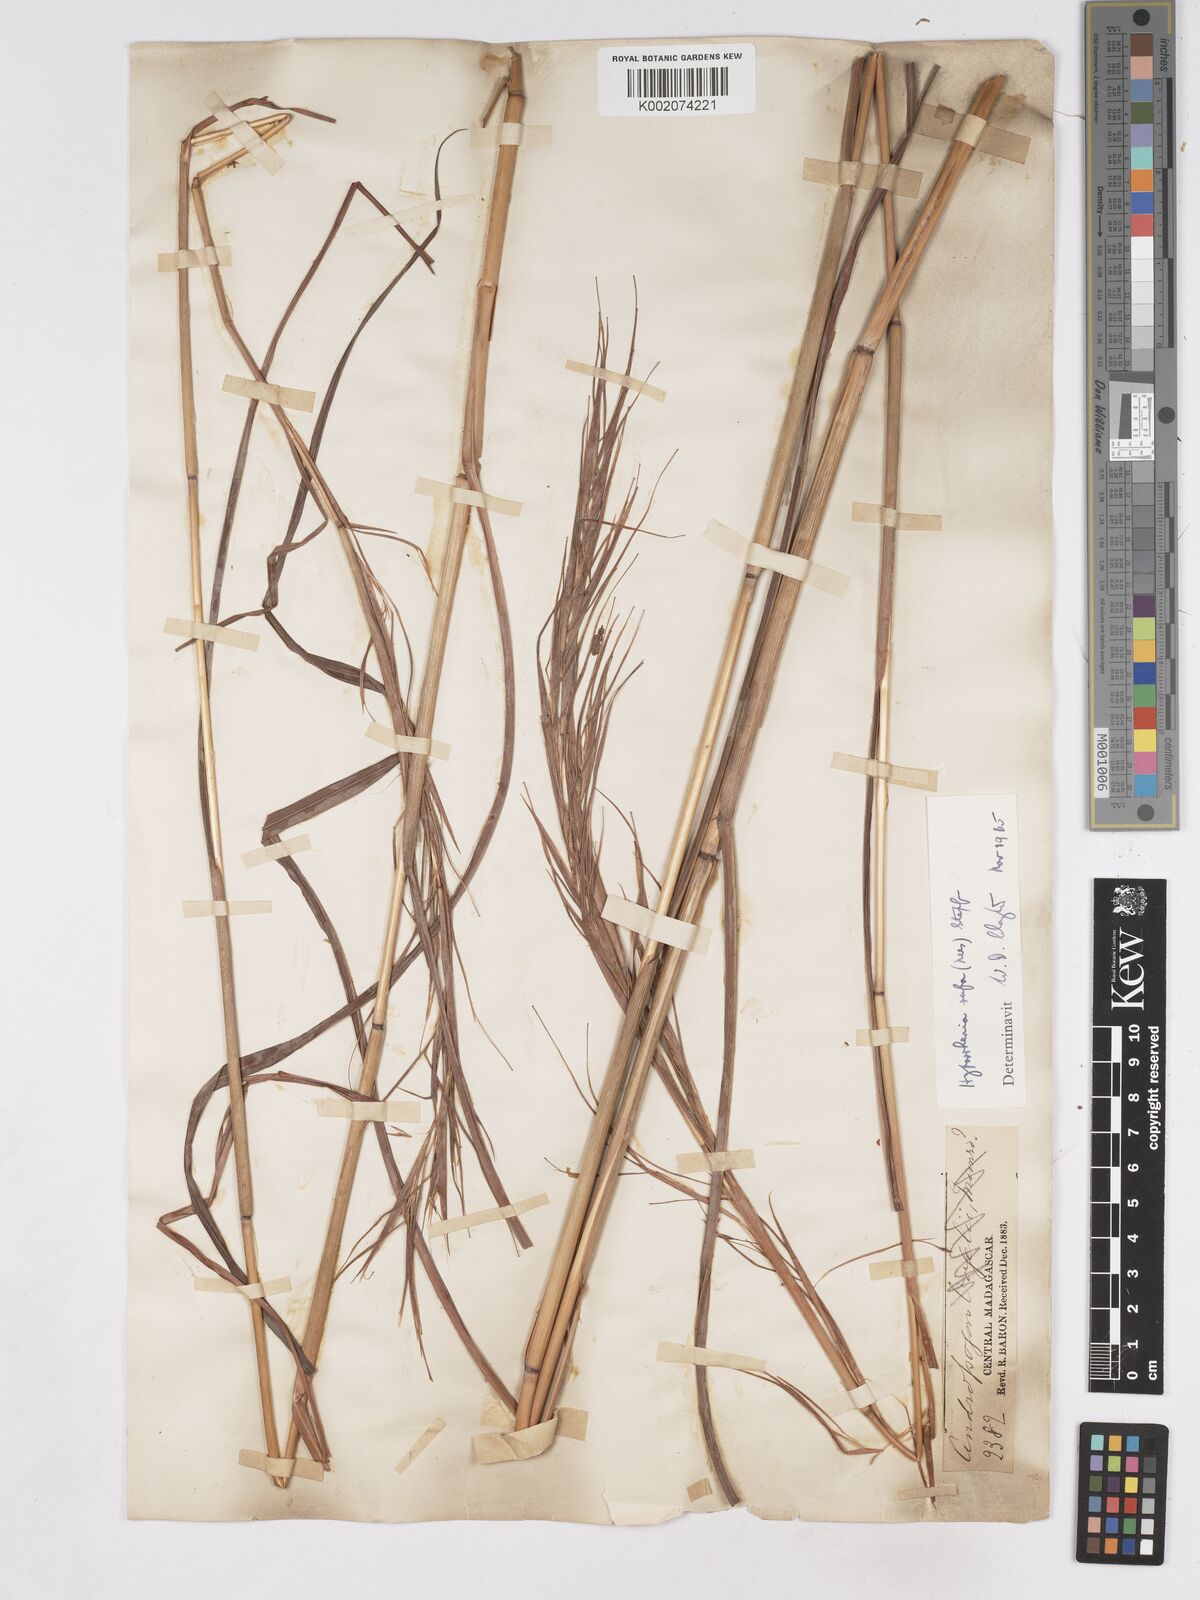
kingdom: Plantae
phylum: Tracheophyta
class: Liliopsida
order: Poales
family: Poaceae
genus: Hyparrhenia
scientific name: Hyparrhenia rufa
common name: Jaraguagrass
